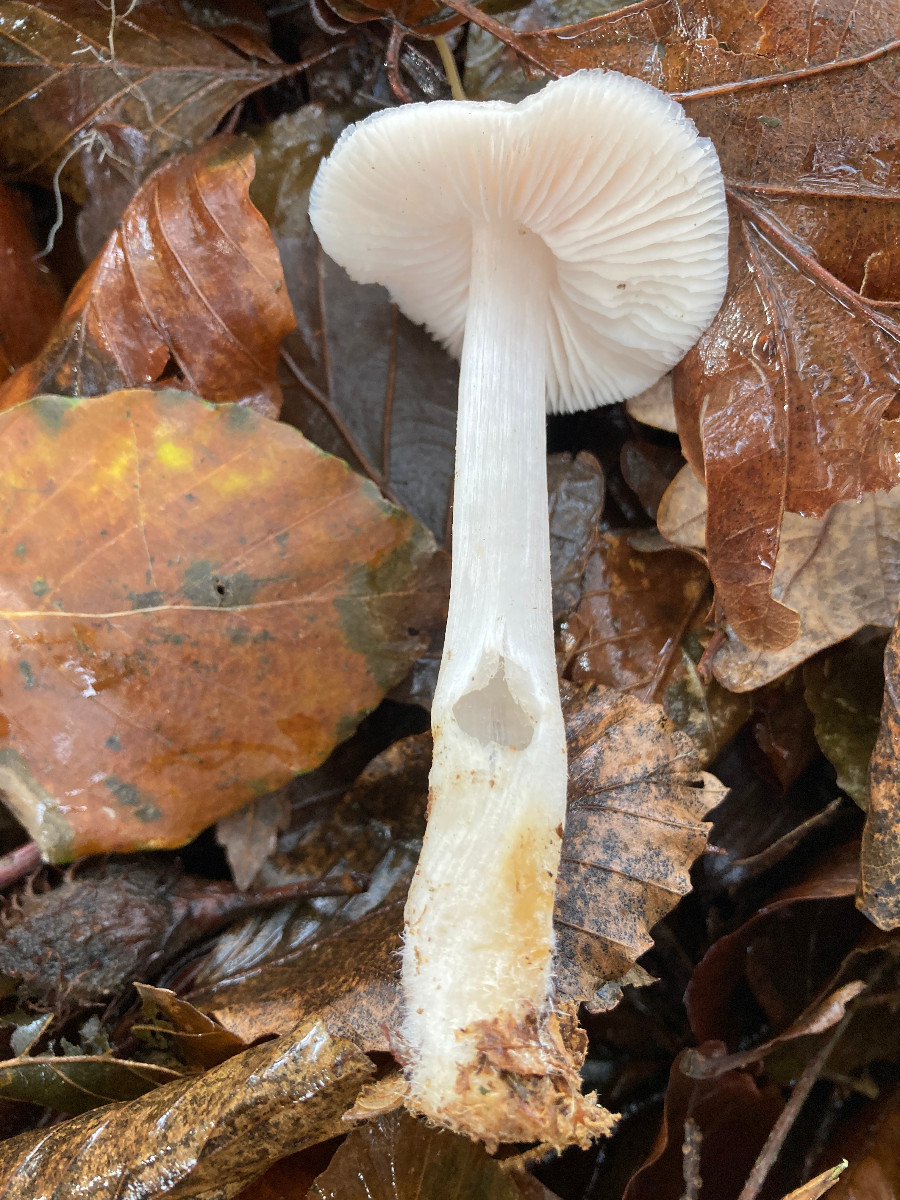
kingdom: Fungi
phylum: Basidiomycota
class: Agaricomycetes
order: Agaricales
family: Mycenaceae
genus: Mycena
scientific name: Mycena rosea
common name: rosa huesvamp
